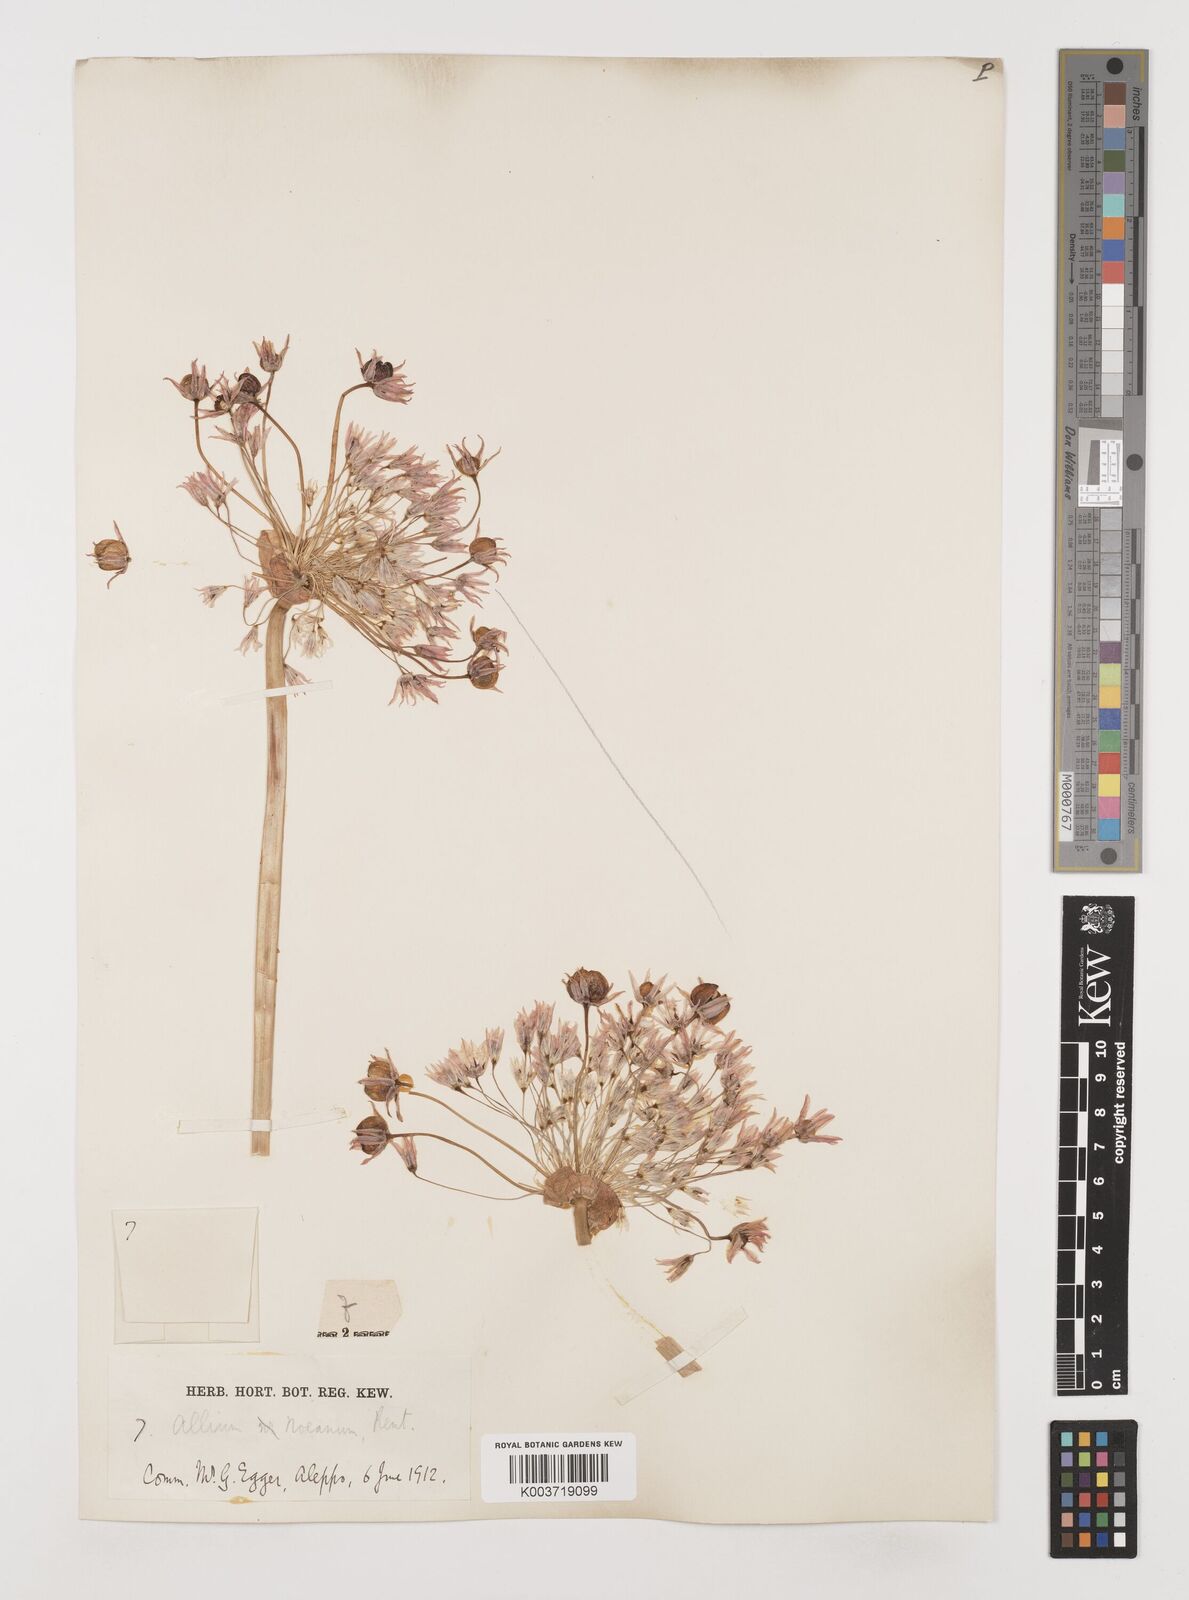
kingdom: Plantae
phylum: Tracheophyta
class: Liliopsida
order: Asparagales
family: Amaryllidaceae
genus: Allium
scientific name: Allium noeanum
